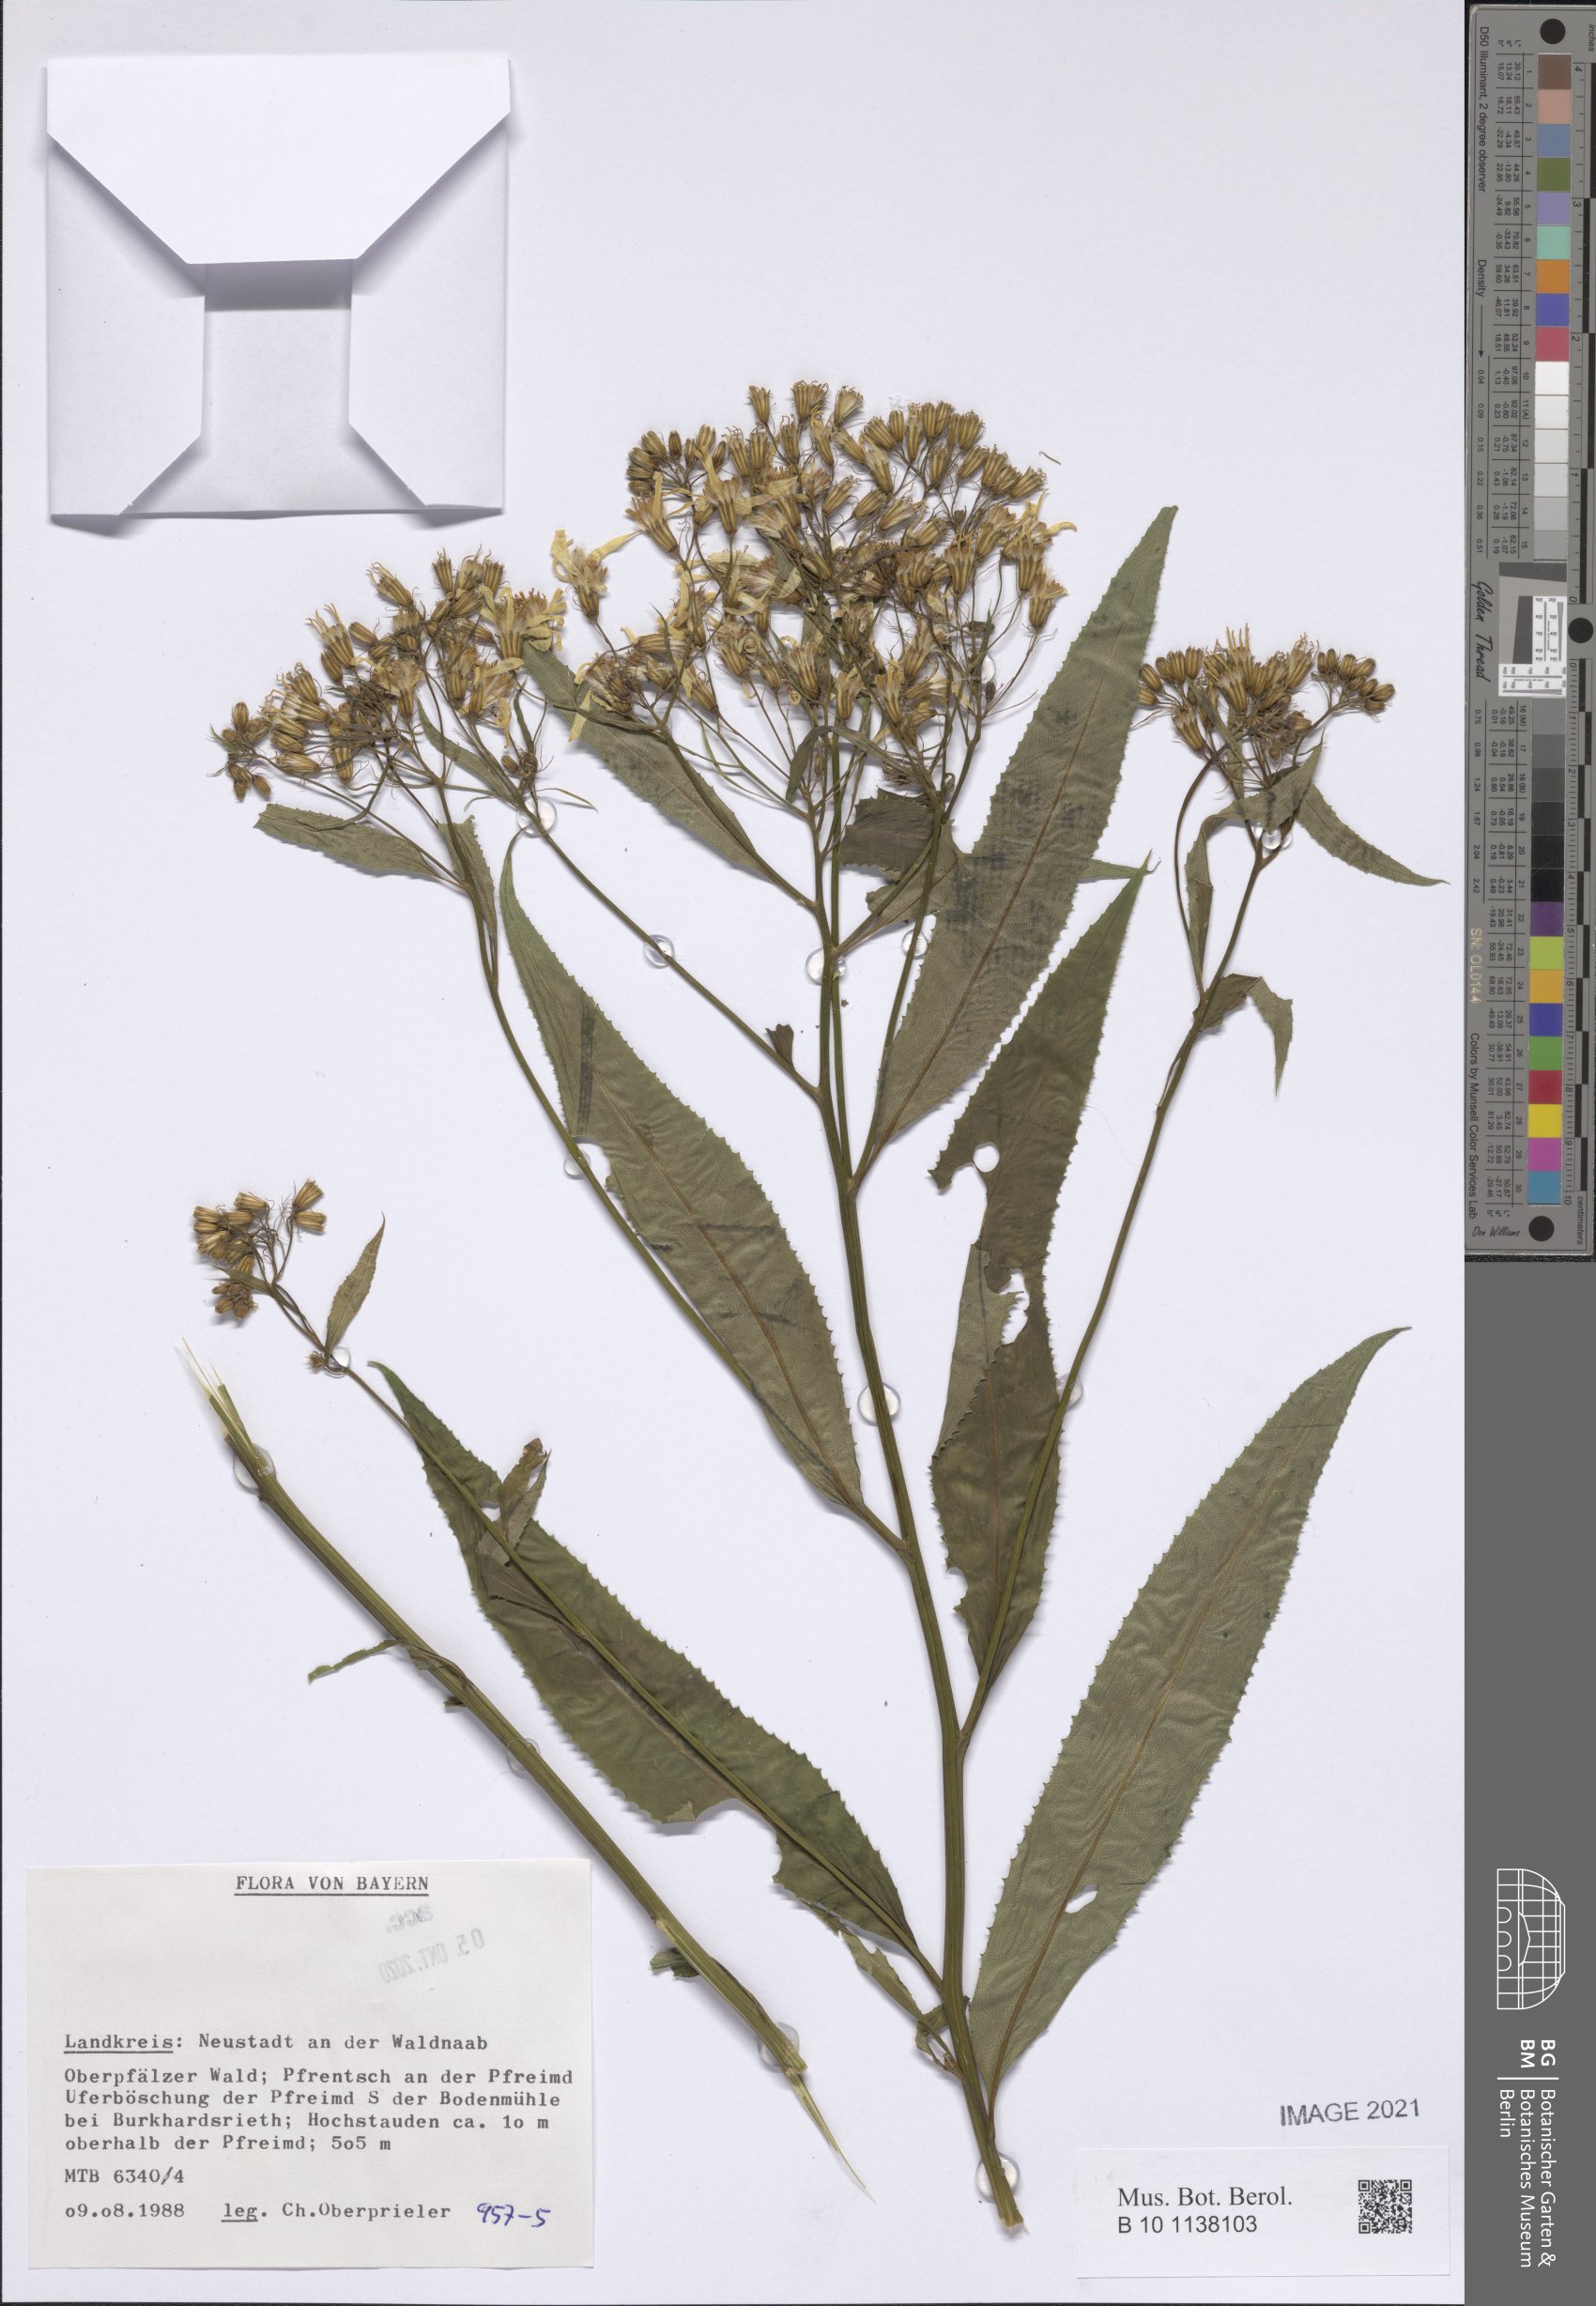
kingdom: Plantae
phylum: Tracheophyta
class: Magnoliopsida
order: Asterales
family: Asteraceae
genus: Senecio
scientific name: Senecio
